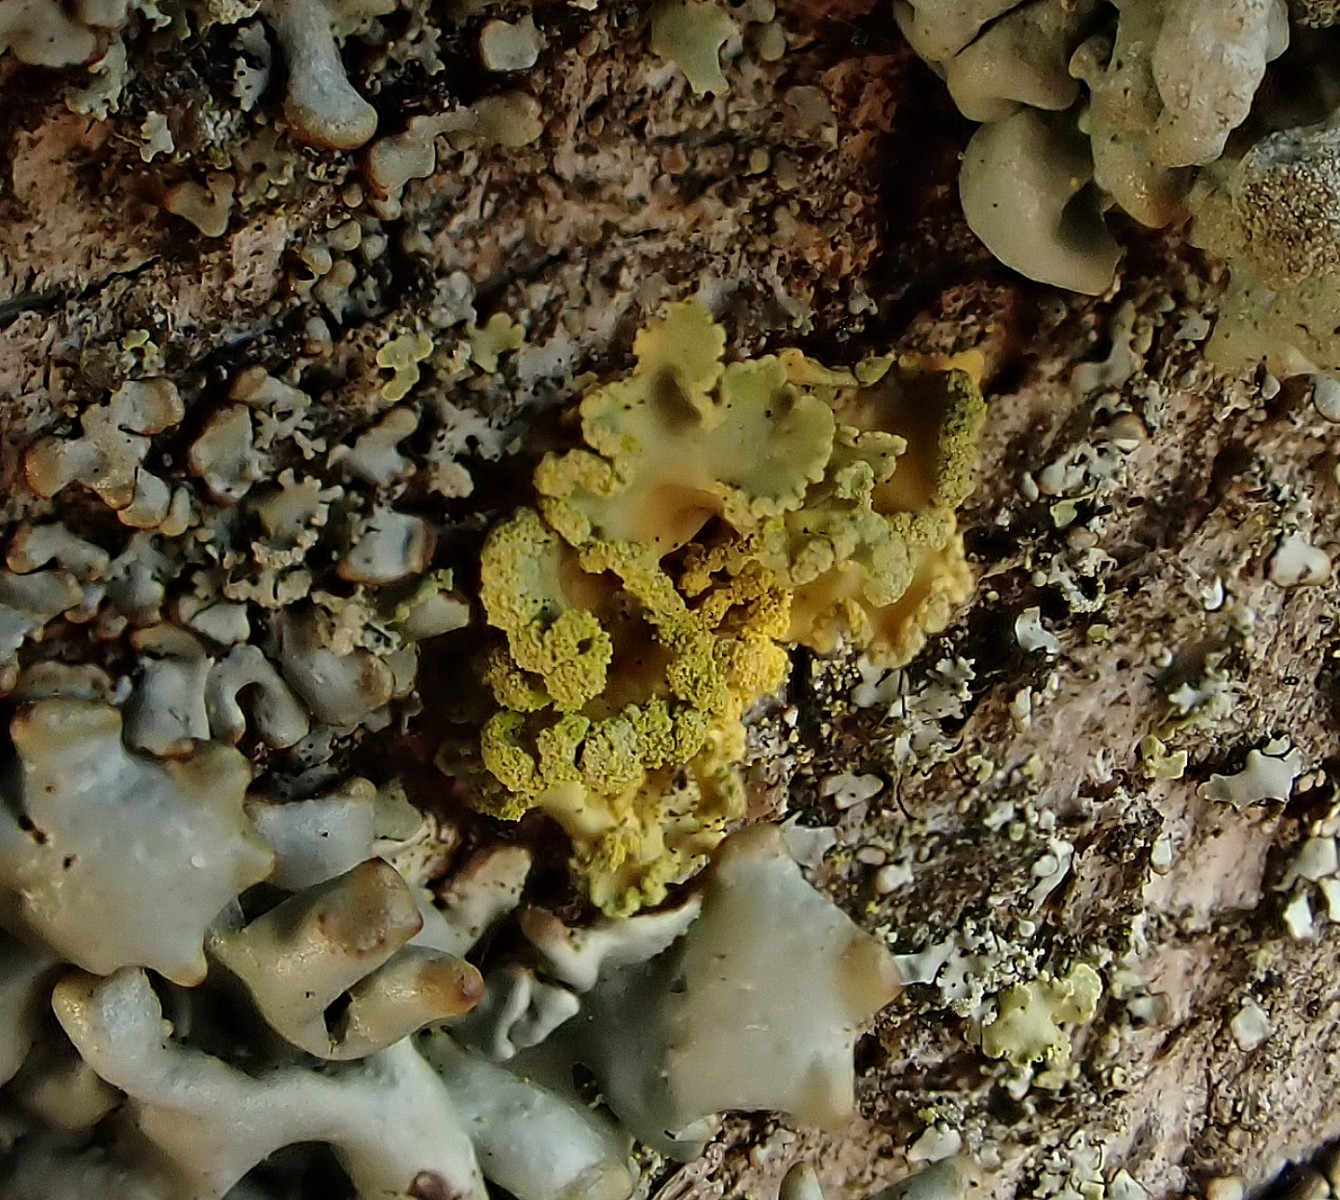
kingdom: Fungi
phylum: Ascomycota
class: Lecanoromycetes
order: Lecanorales
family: Parmeliaceae
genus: Vulpicida
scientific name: Vulpicida pinastri
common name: gul kruslav
